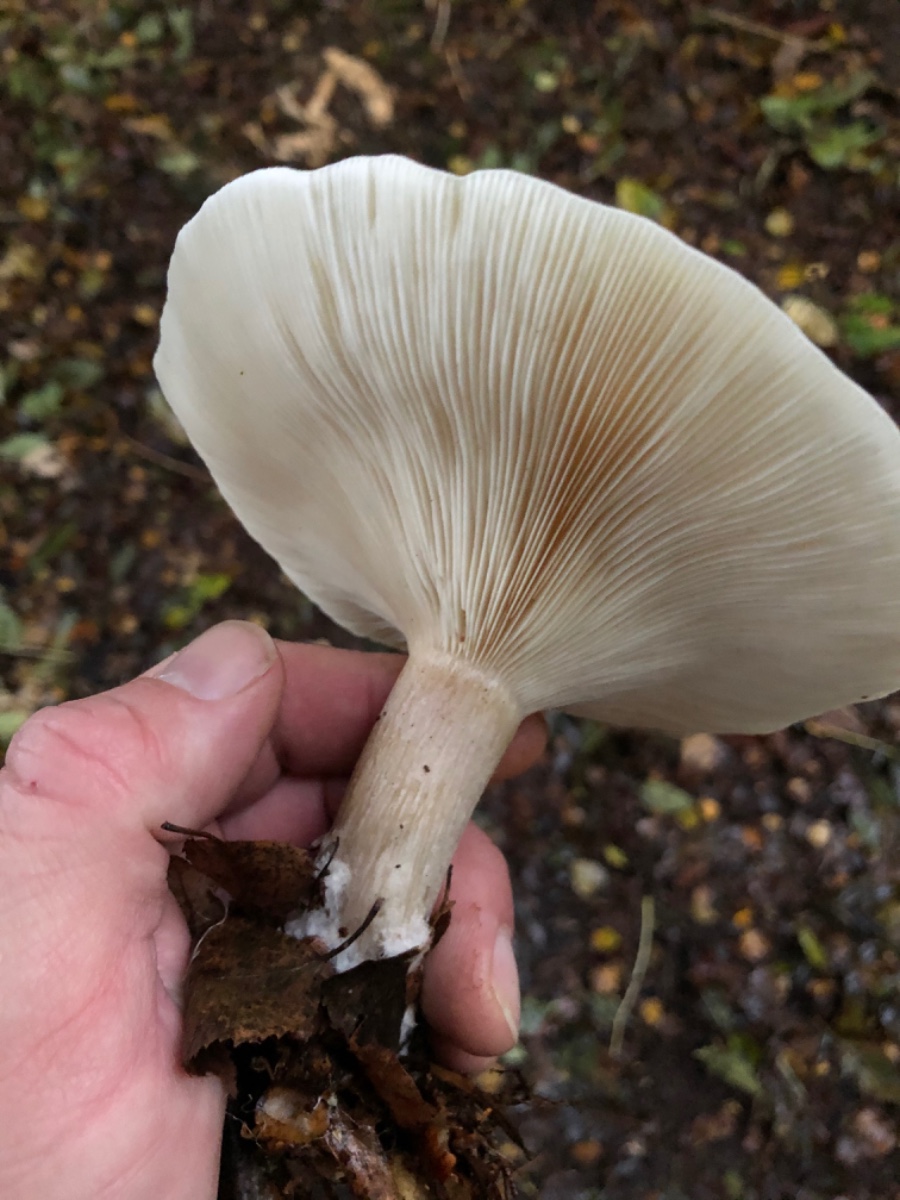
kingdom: Fungi
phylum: Basidiomycota
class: Agaricomycetes
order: Agaricales
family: Tricholomataceae
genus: Clitocybe
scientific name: Clitocybe nebularis
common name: tåge-tragthat
